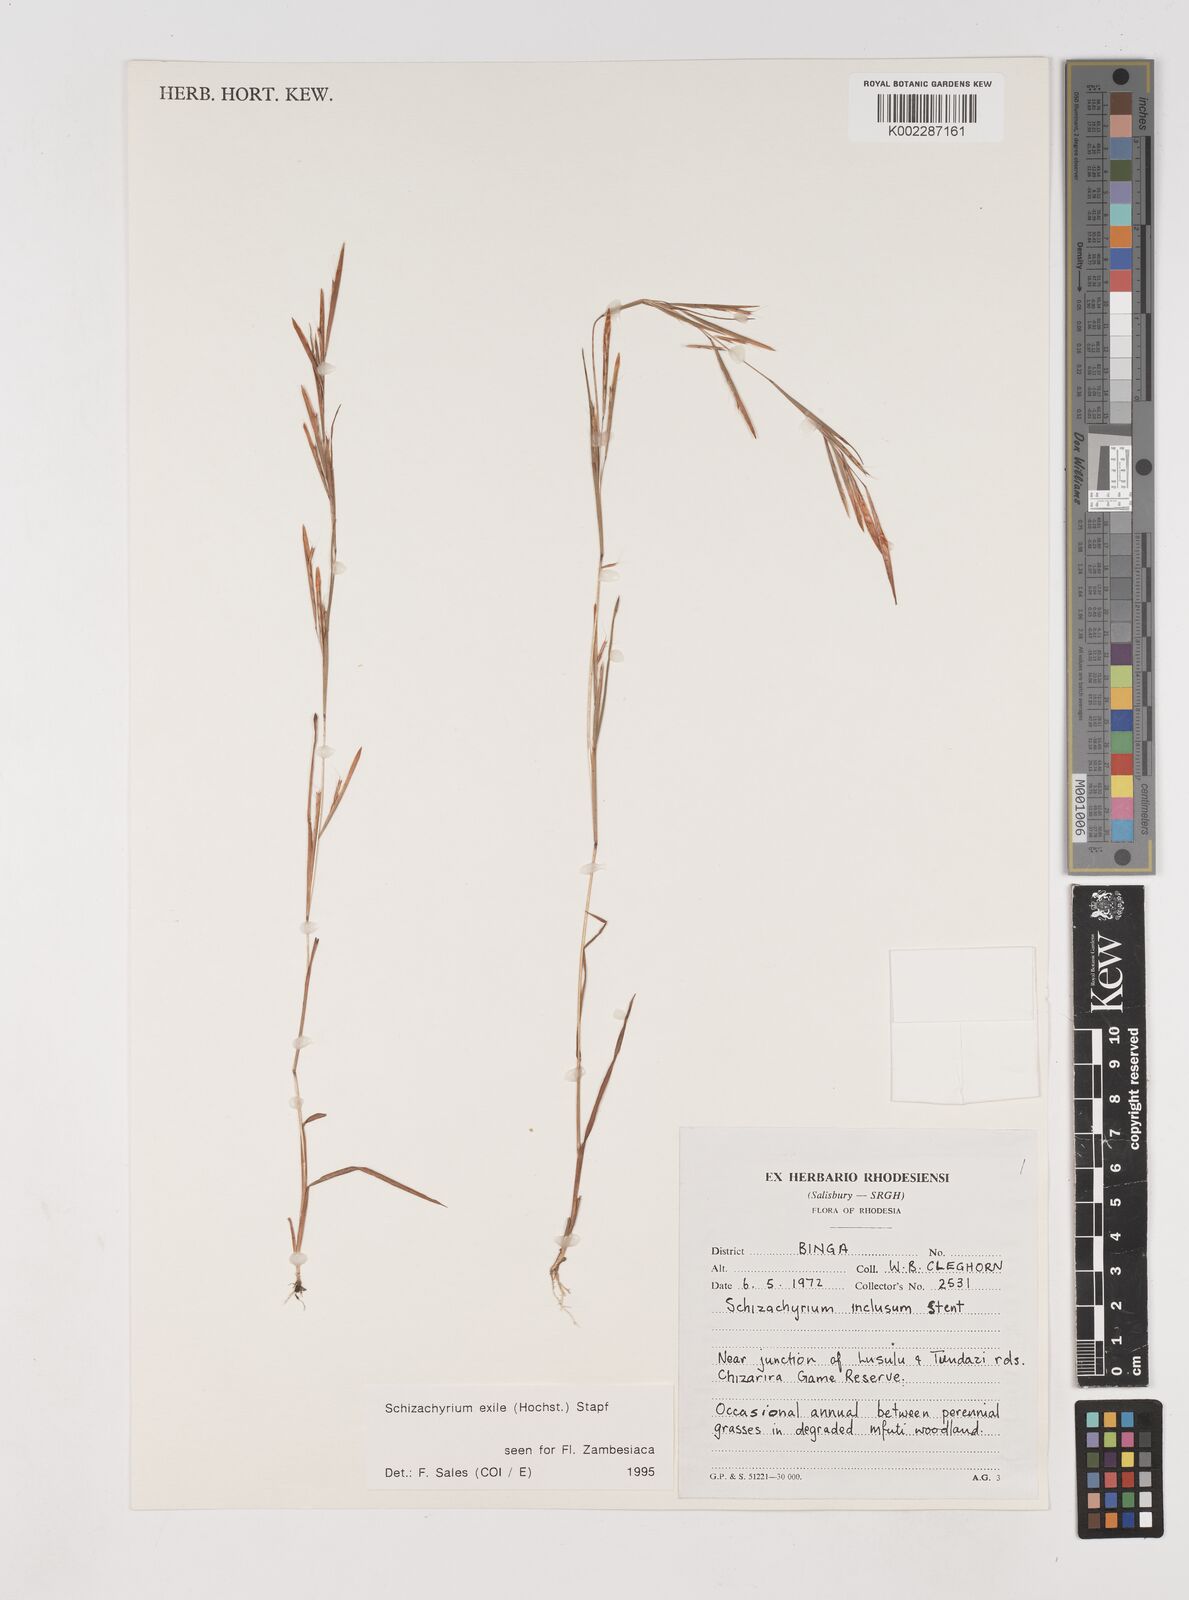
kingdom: Plantae
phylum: Tracheophyta
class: Liliopsida
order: Poales
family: Poaceae
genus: Schizachyrium
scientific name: Schizachyrium exile
